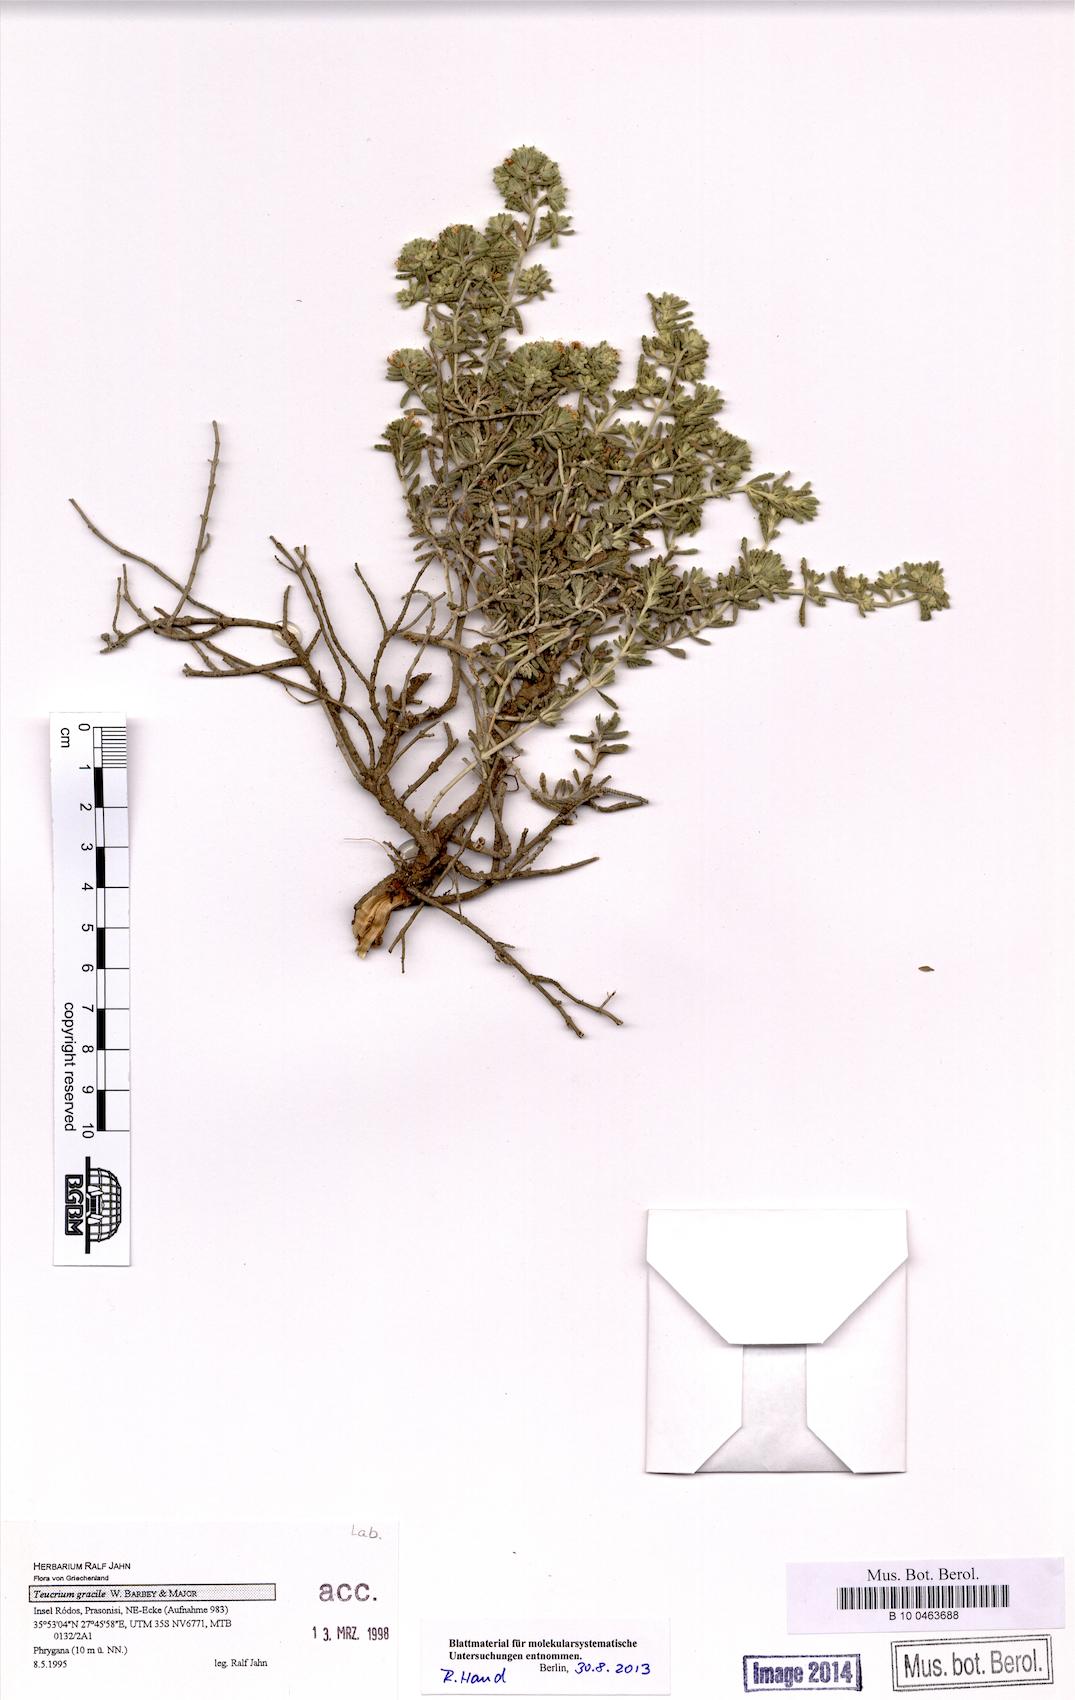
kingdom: Plantae
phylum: Tracheophyta
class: Magnoliopsida
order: Lamiales
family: Lamiaceae
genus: Teucrium
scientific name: Teucrium gracile
